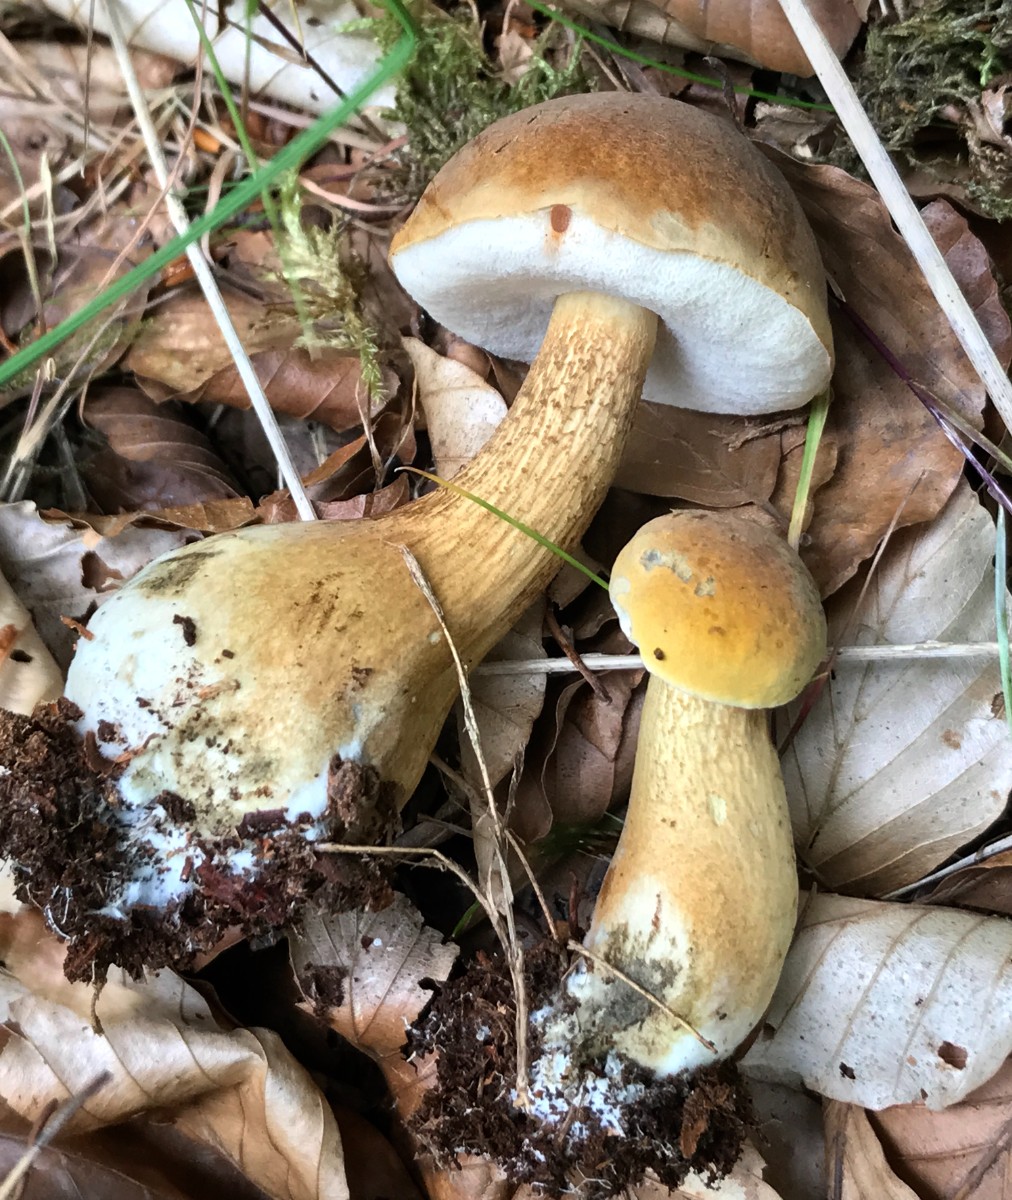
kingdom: Fungi
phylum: Basidiomycota
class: Agaricomycetes
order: Boletales
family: Boletaceae
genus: Tylopilus
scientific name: Tylopilus felleus
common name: galderørhat
